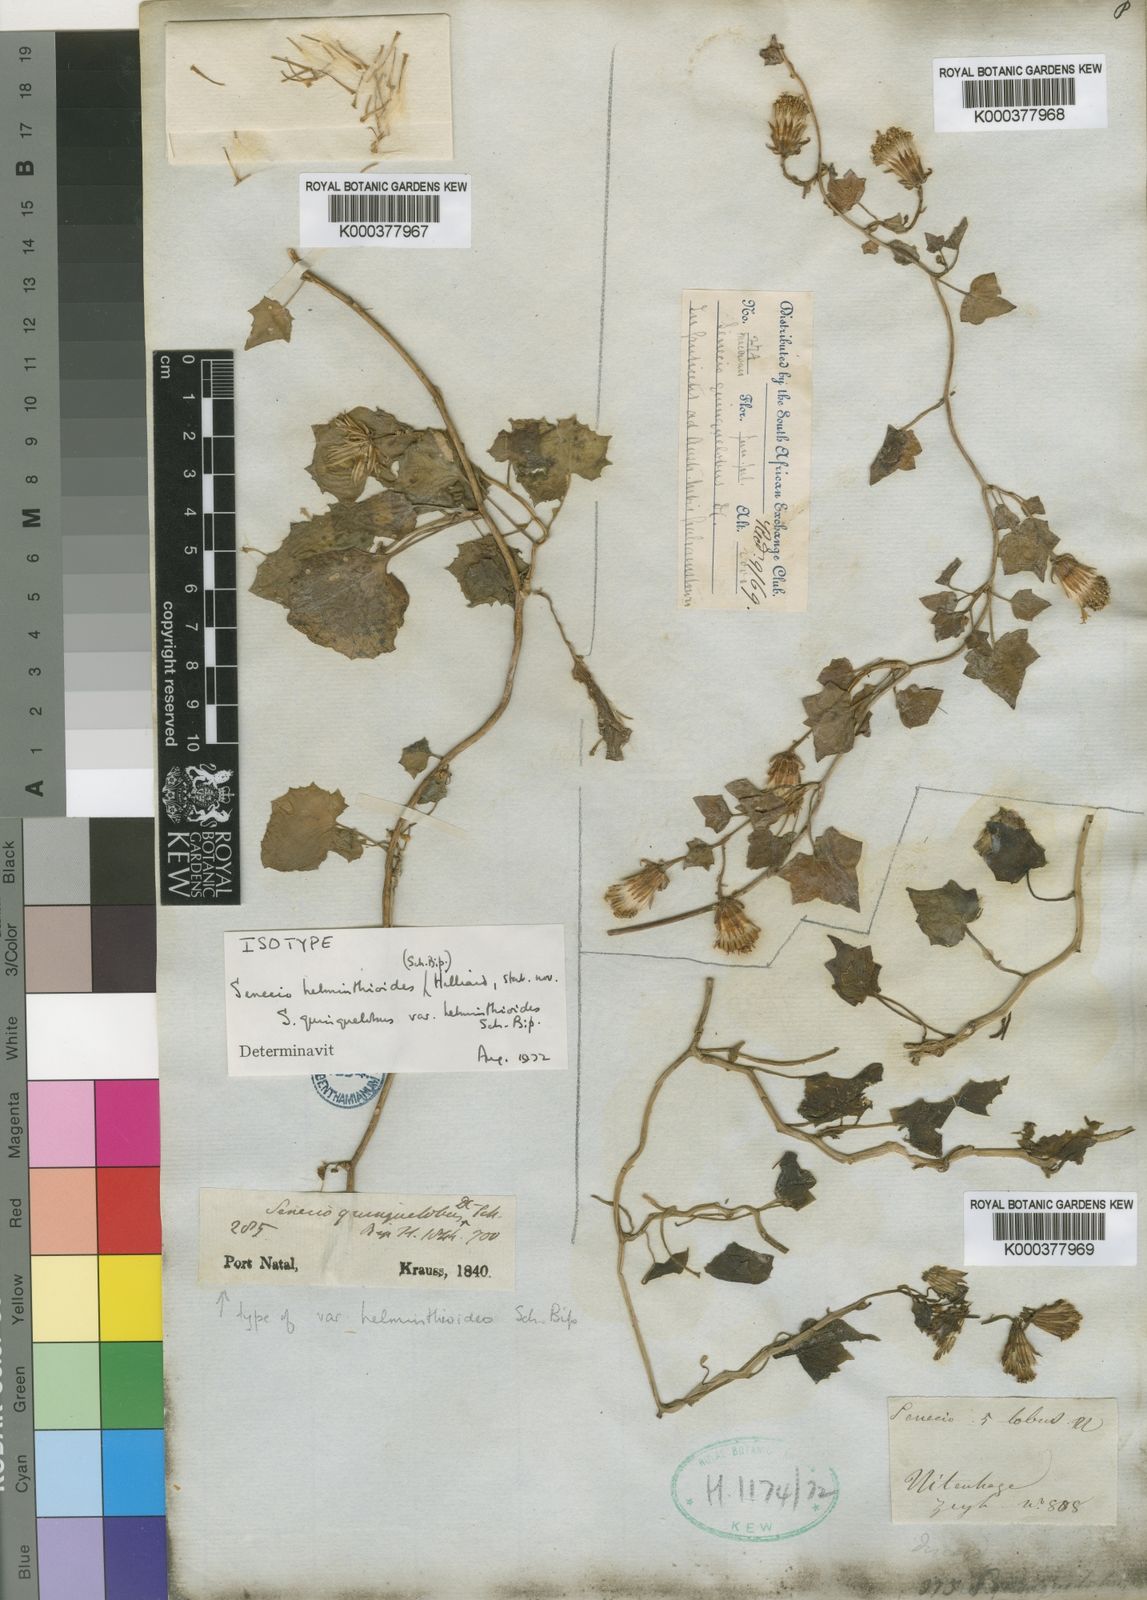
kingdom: Plantae
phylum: Tracheophyta
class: Magnoliopsida
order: Asterales
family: Asteraceae
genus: Senecio
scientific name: Senecio helminthioides
